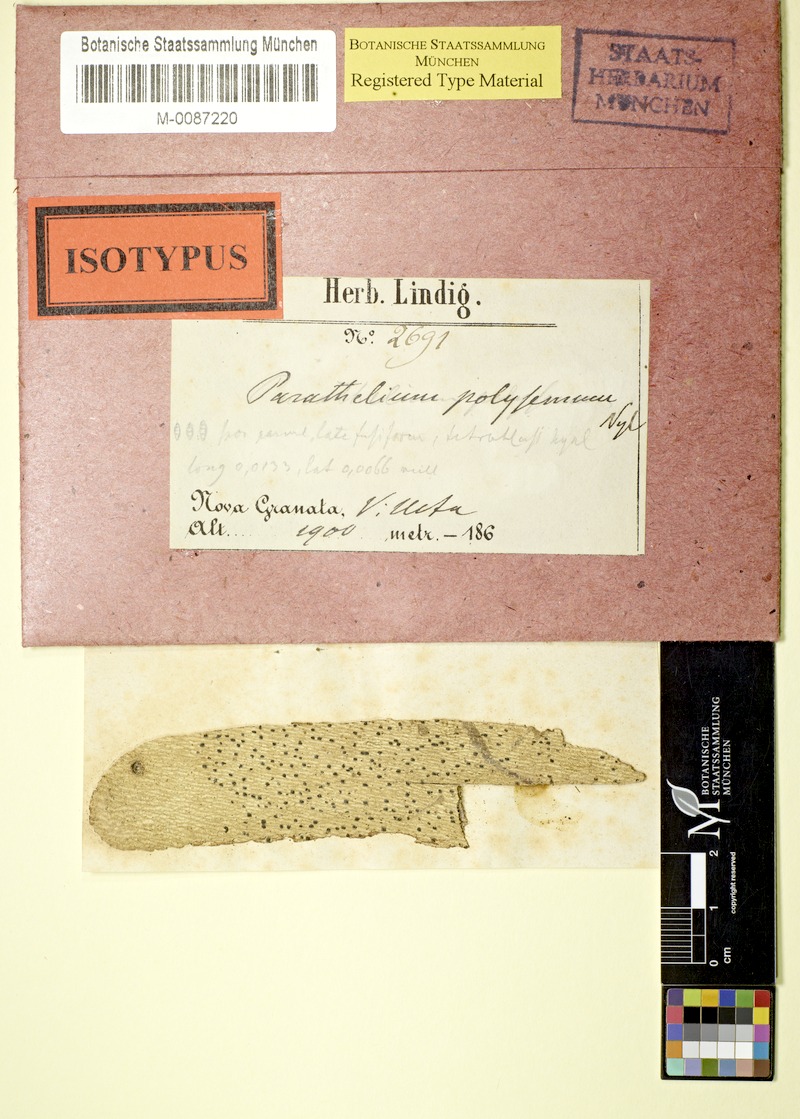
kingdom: Fungi
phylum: Ascomycota
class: Eurotiomycetes
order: Pyrenulales
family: Pyrenulaceae
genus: Lithothelium
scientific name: Lithothelium polysemum
